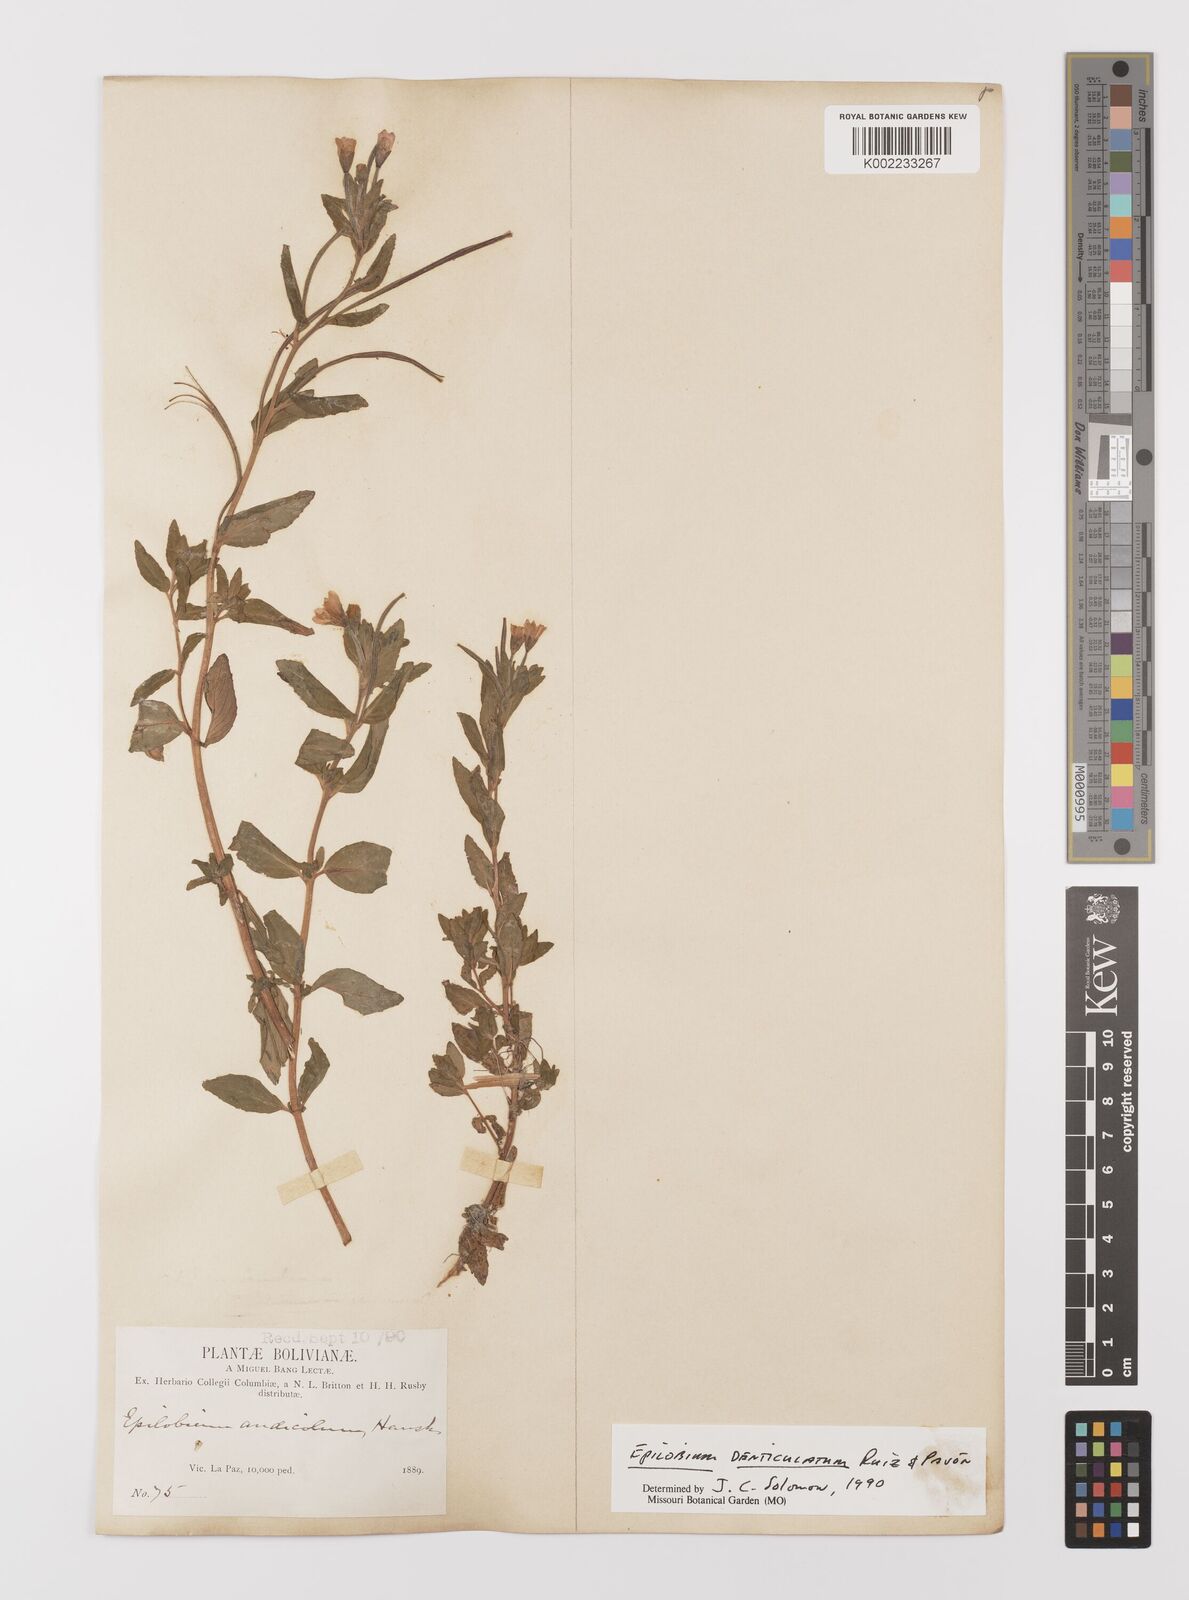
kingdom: Plantae
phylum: Tracheophyta
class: Magnoliopsida
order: Myrtales
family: Onagraceae
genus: Epilobium
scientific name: Epilobium
